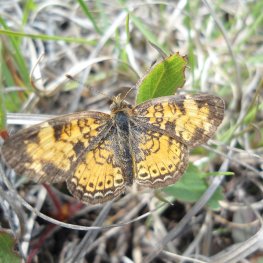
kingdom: Animalia
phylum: Arthropoda
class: Insecta
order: Lepidoptera
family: Nymphalidae
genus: Phyciodes
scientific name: Phyciodes tharos
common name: Pearl Crescent
